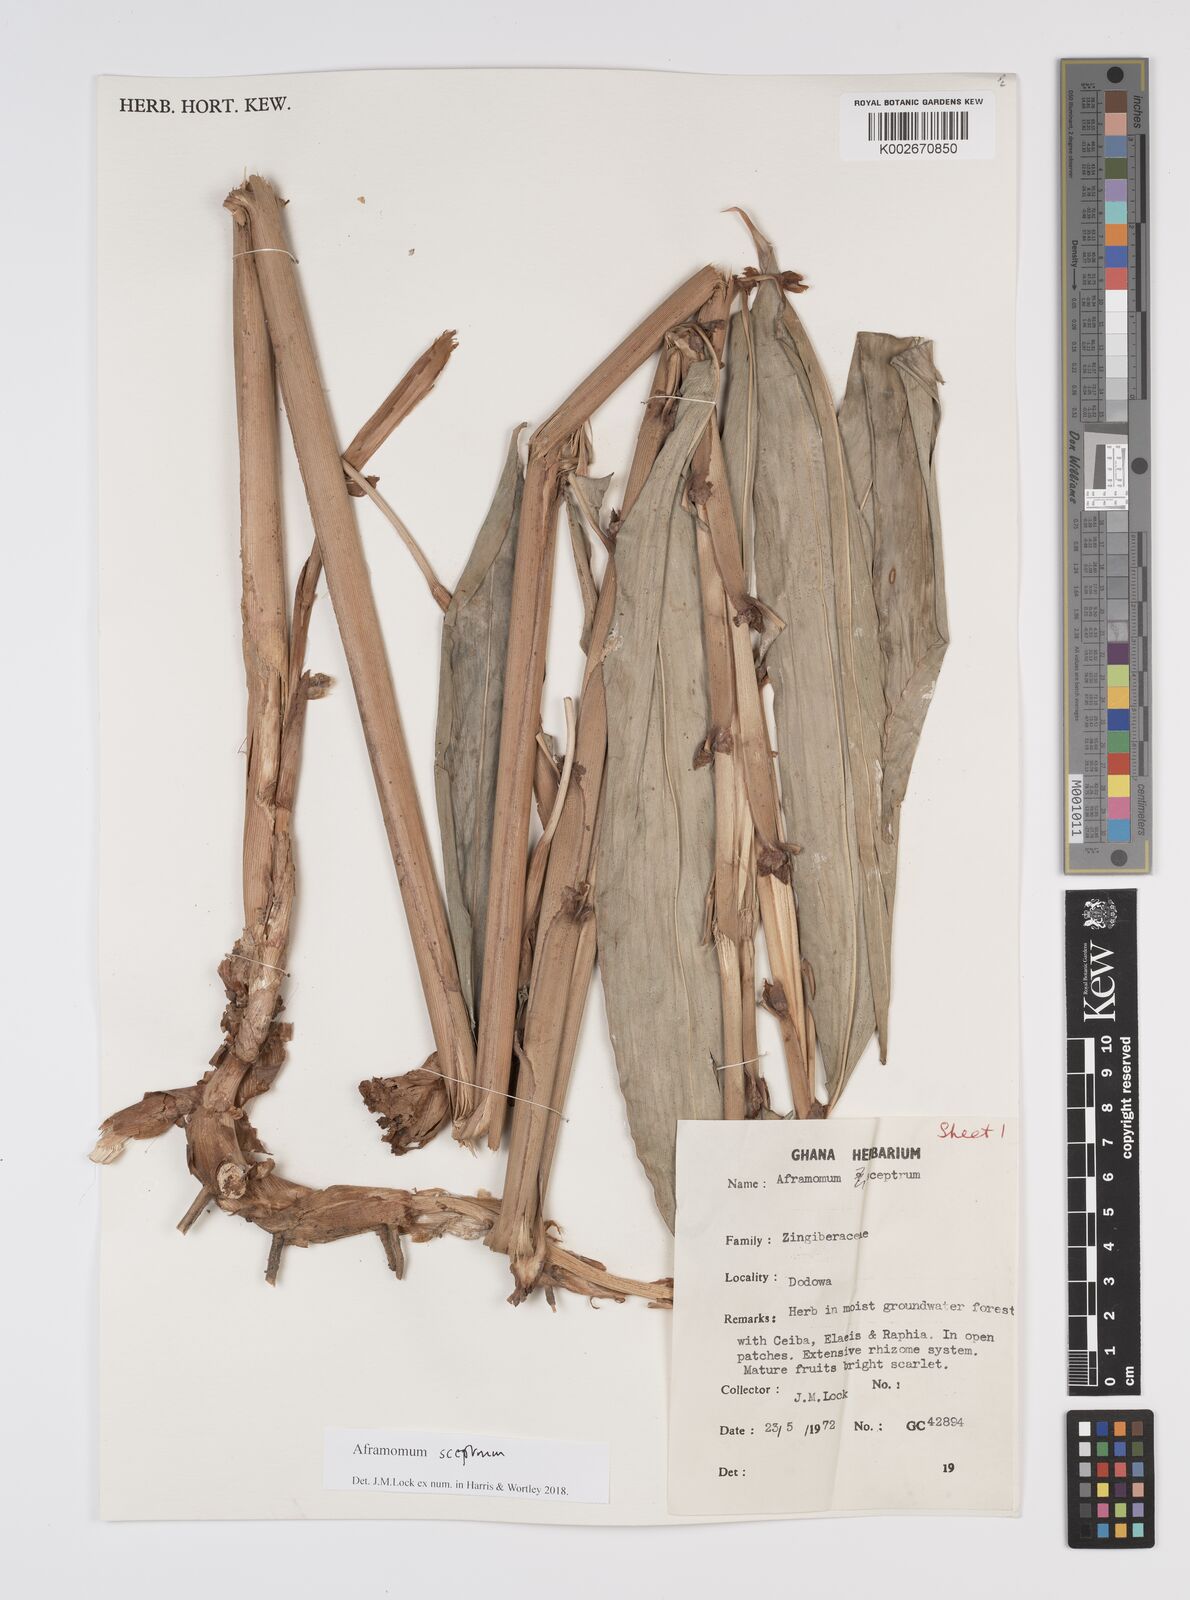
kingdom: Plantae
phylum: Tracheophyta
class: Liliopsida
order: Zingiberales
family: Zingiberaceae
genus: Aframomum
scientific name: Aframomum cereum
